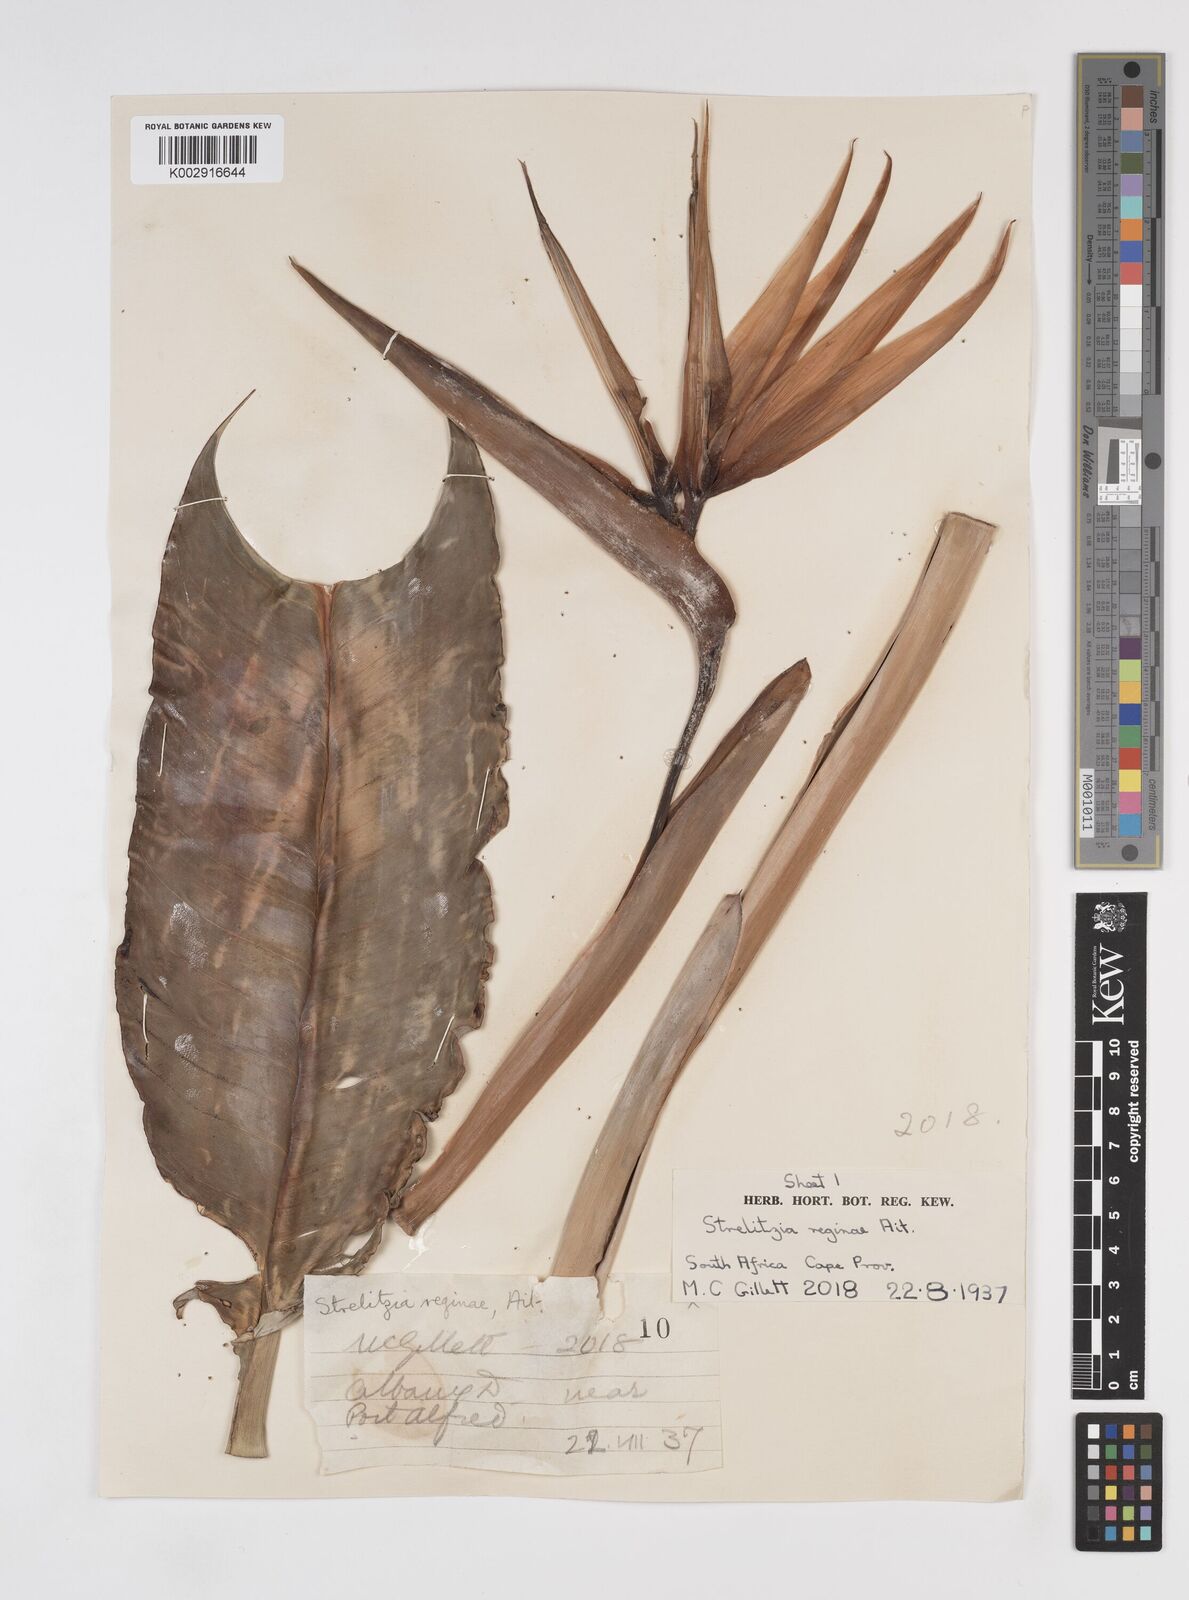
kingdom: Plantae
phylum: Tracheophyta
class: Liliopsida
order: Zingiberales
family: Strelitziaceae
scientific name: Strelitziaceae
